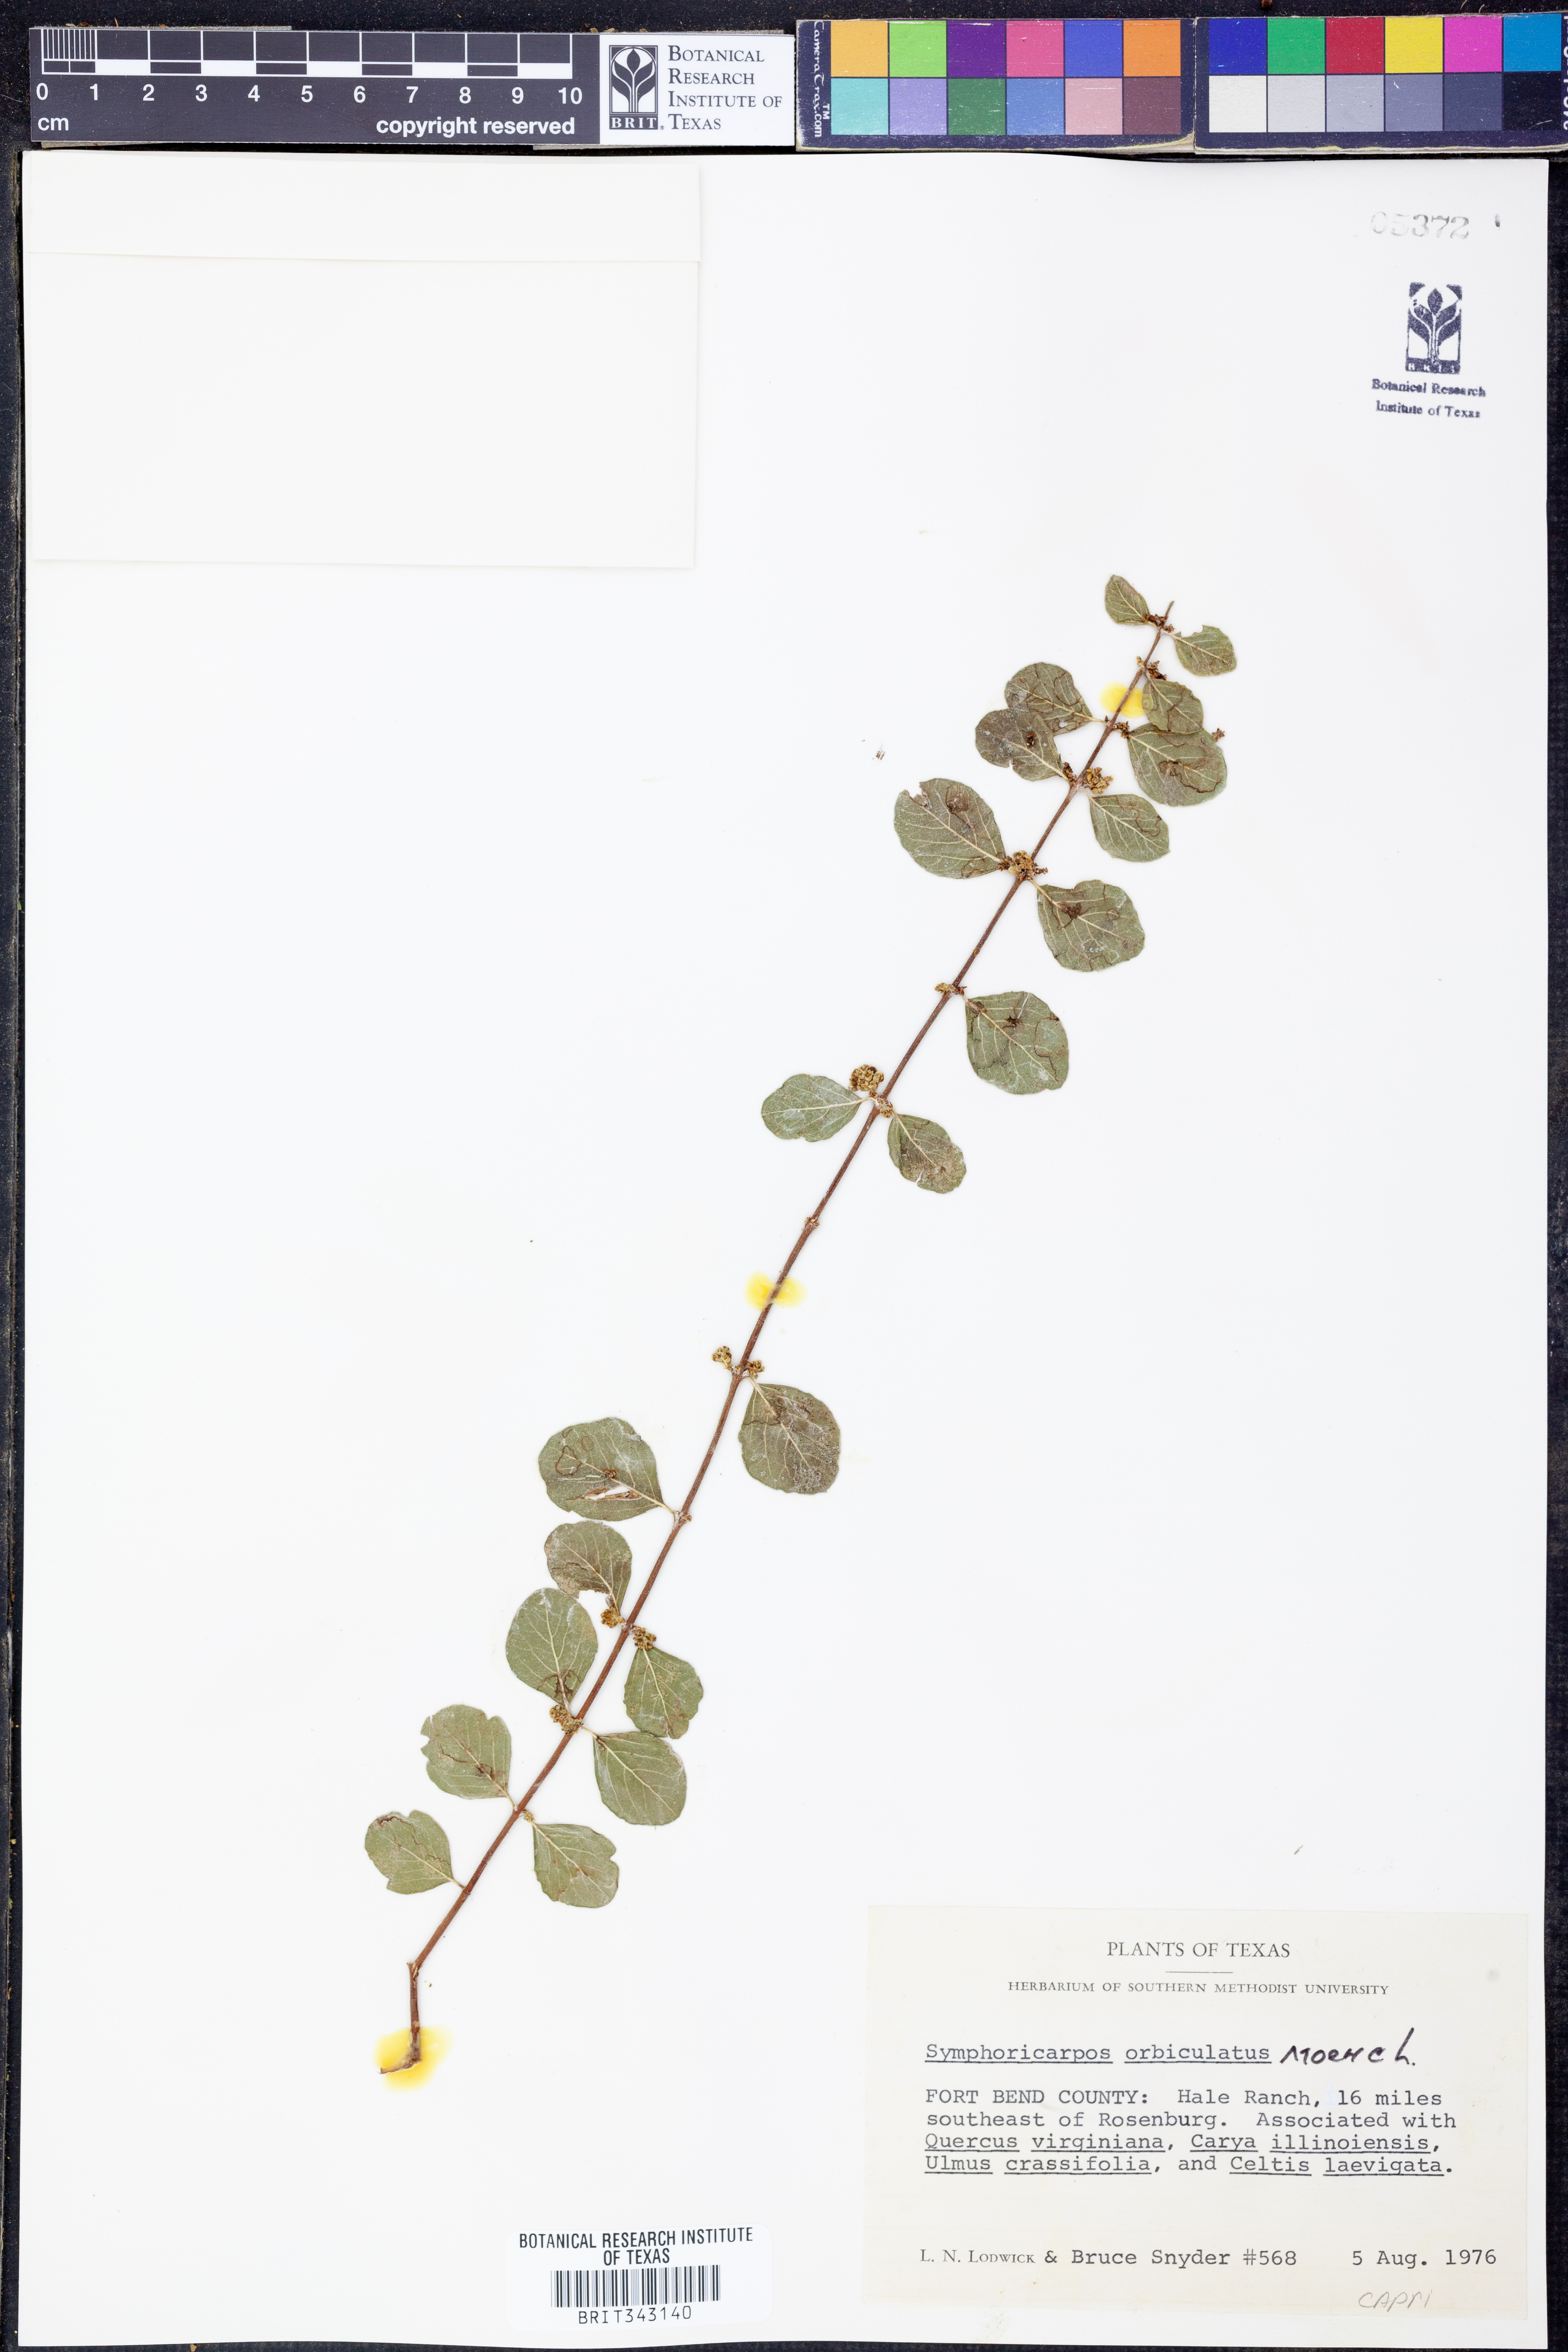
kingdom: Plantae
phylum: Tracheophyta
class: Magnoliopsida
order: Dipsacales
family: Caprifoliaceae
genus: Symphoricarpos
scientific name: Symphoricarpos orbiculatus
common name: Coralberry
